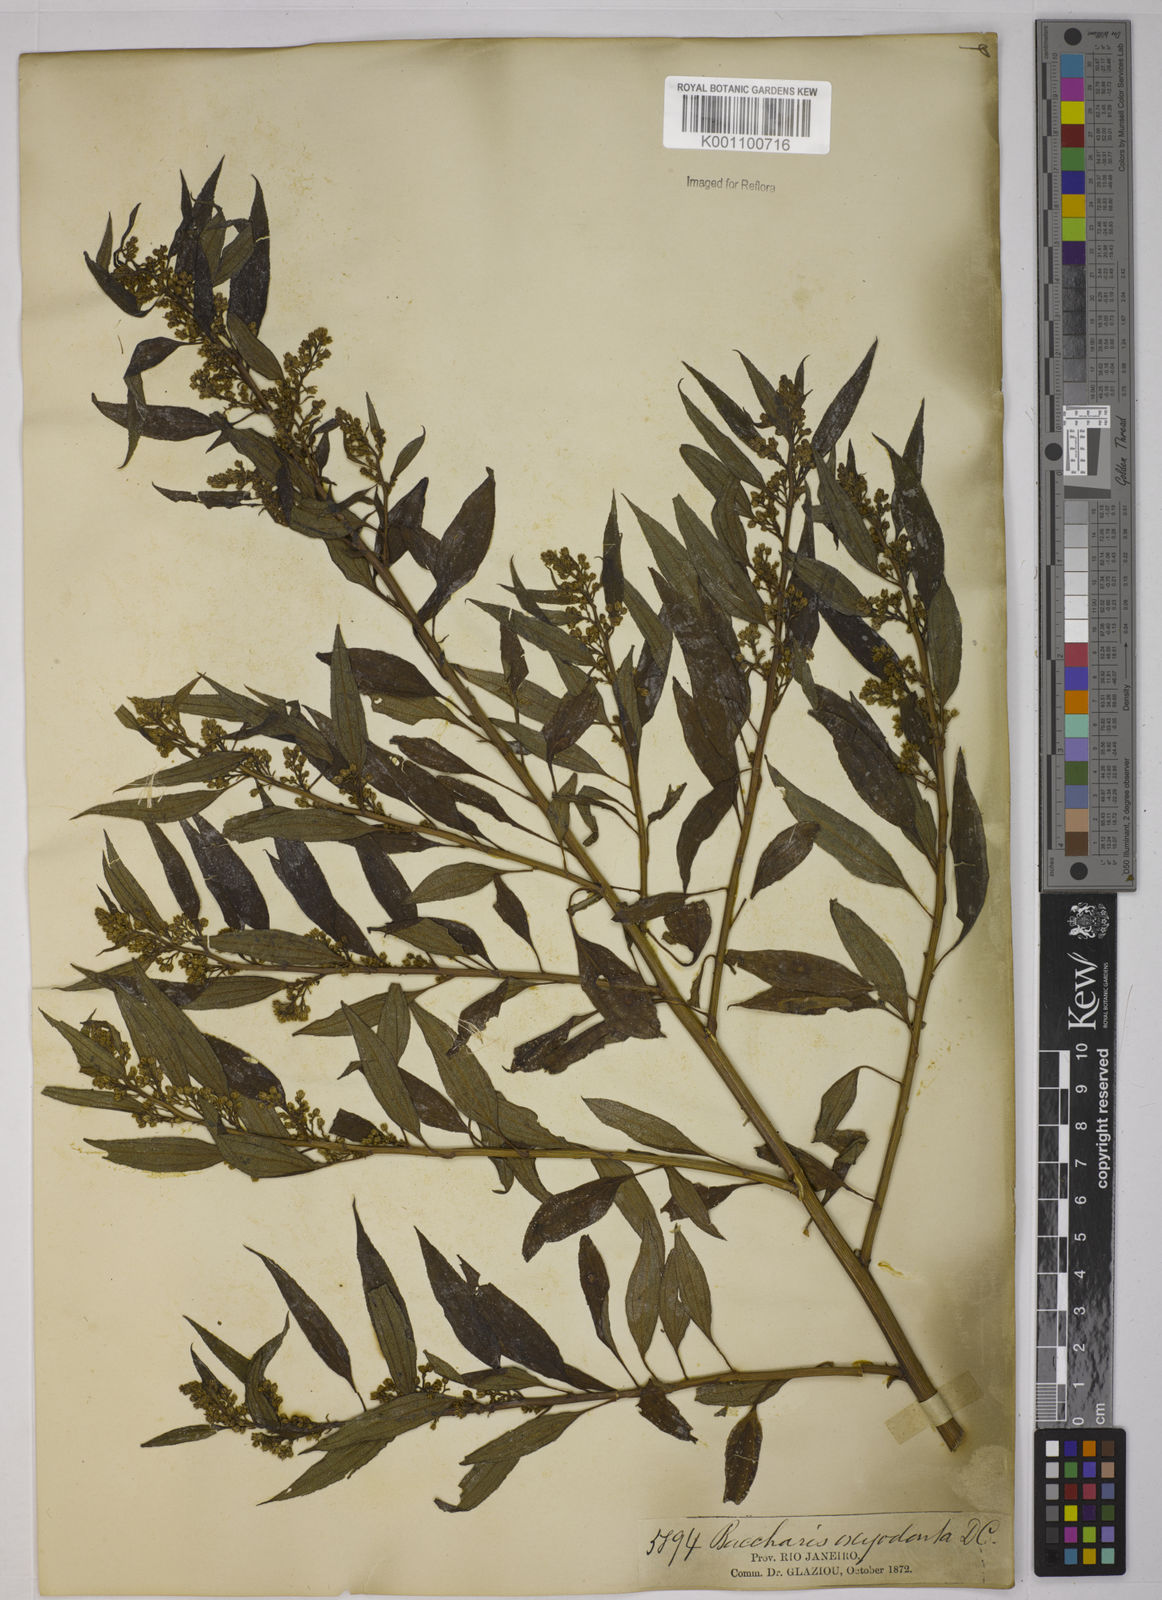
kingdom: Plantae
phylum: Tracheophyta
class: Magnoliopsida
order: Asterales
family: Asteraceae
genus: Baccharis
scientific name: Baccharis oxyodonta
